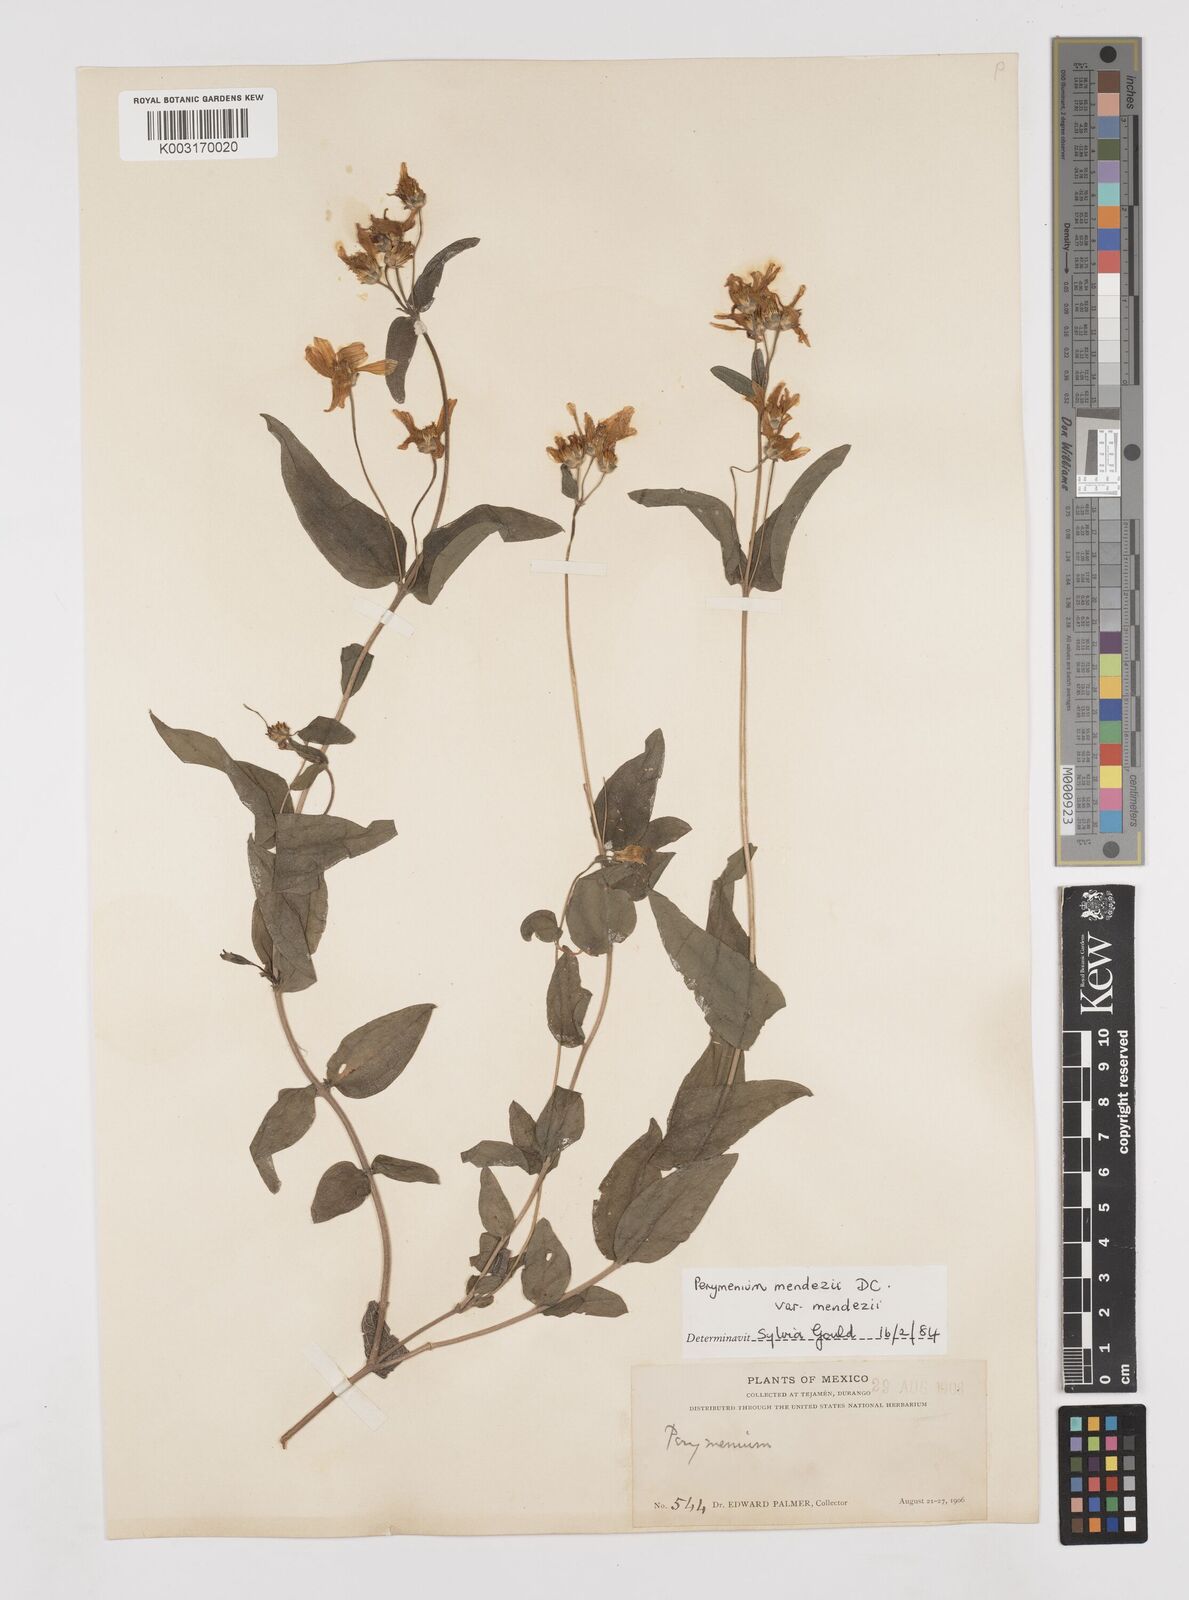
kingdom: Plantae
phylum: Tracheophyta
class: Magnoliopsida
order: Asterales
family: Asteraceae
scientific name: Asteraceae
